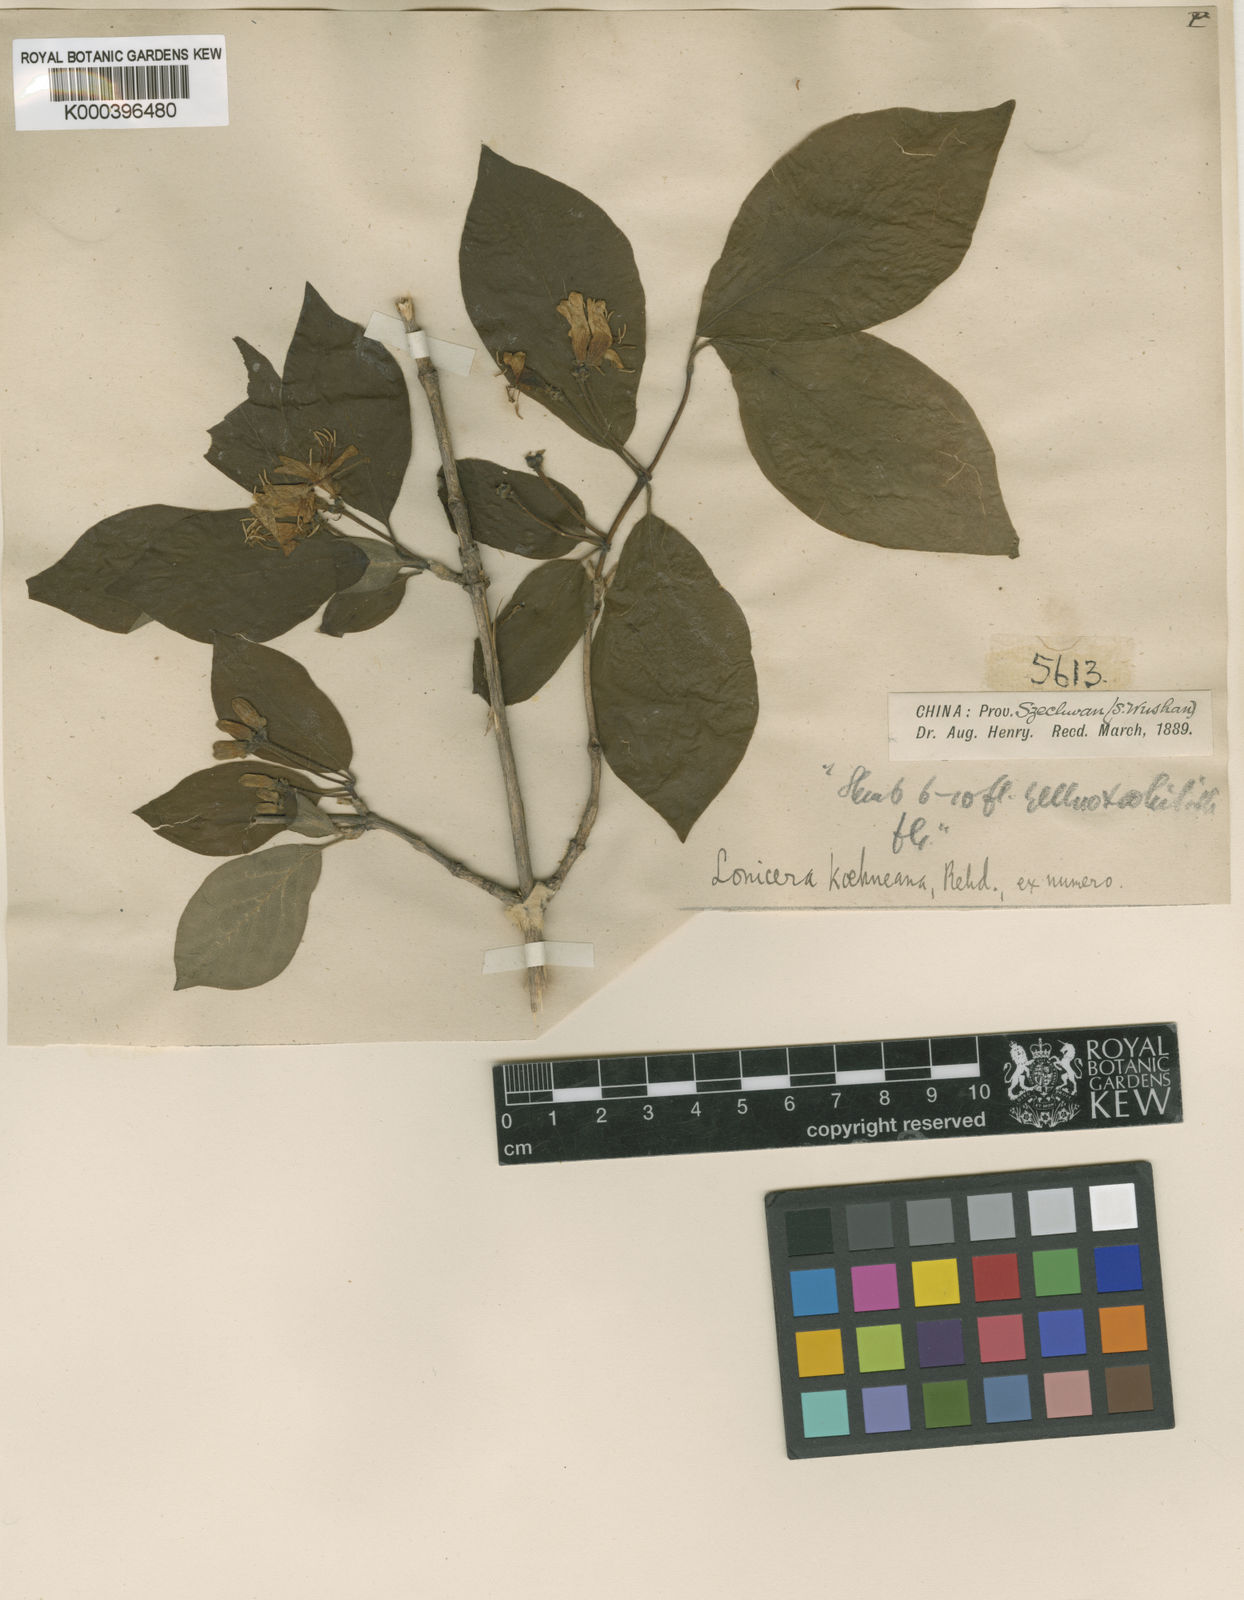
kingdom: Plantae
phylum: Tracheophyta
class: Magnoliopsida
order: Dipsacales
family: Caprifoliaceae
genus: Lonicera
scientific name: Lonicera chrysantha
